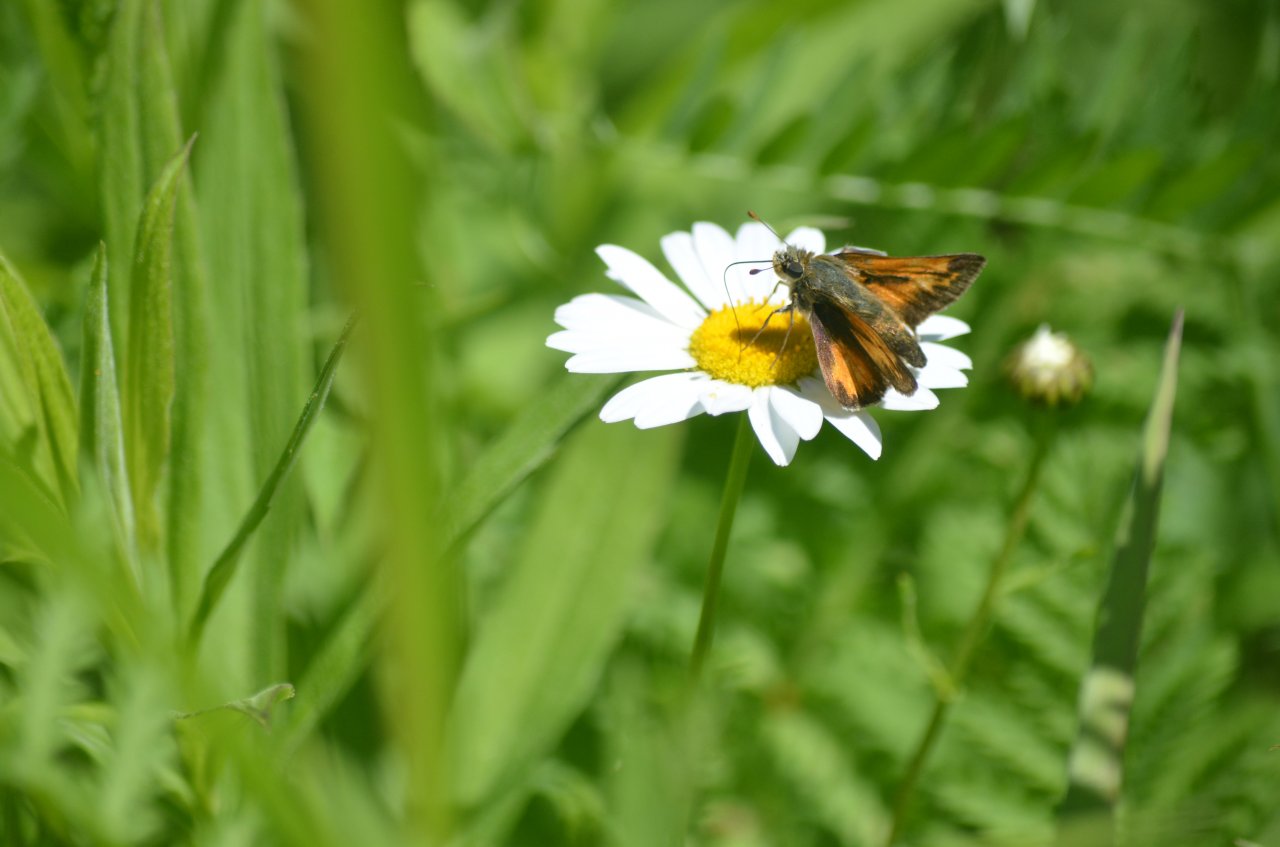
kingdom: Animalia
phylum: Arthropoda
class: Insecta
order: Lepidoptera
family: Hesperiidae
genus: Hesperia
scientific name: Hesperia sassacus
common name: Sassacus Skipper
